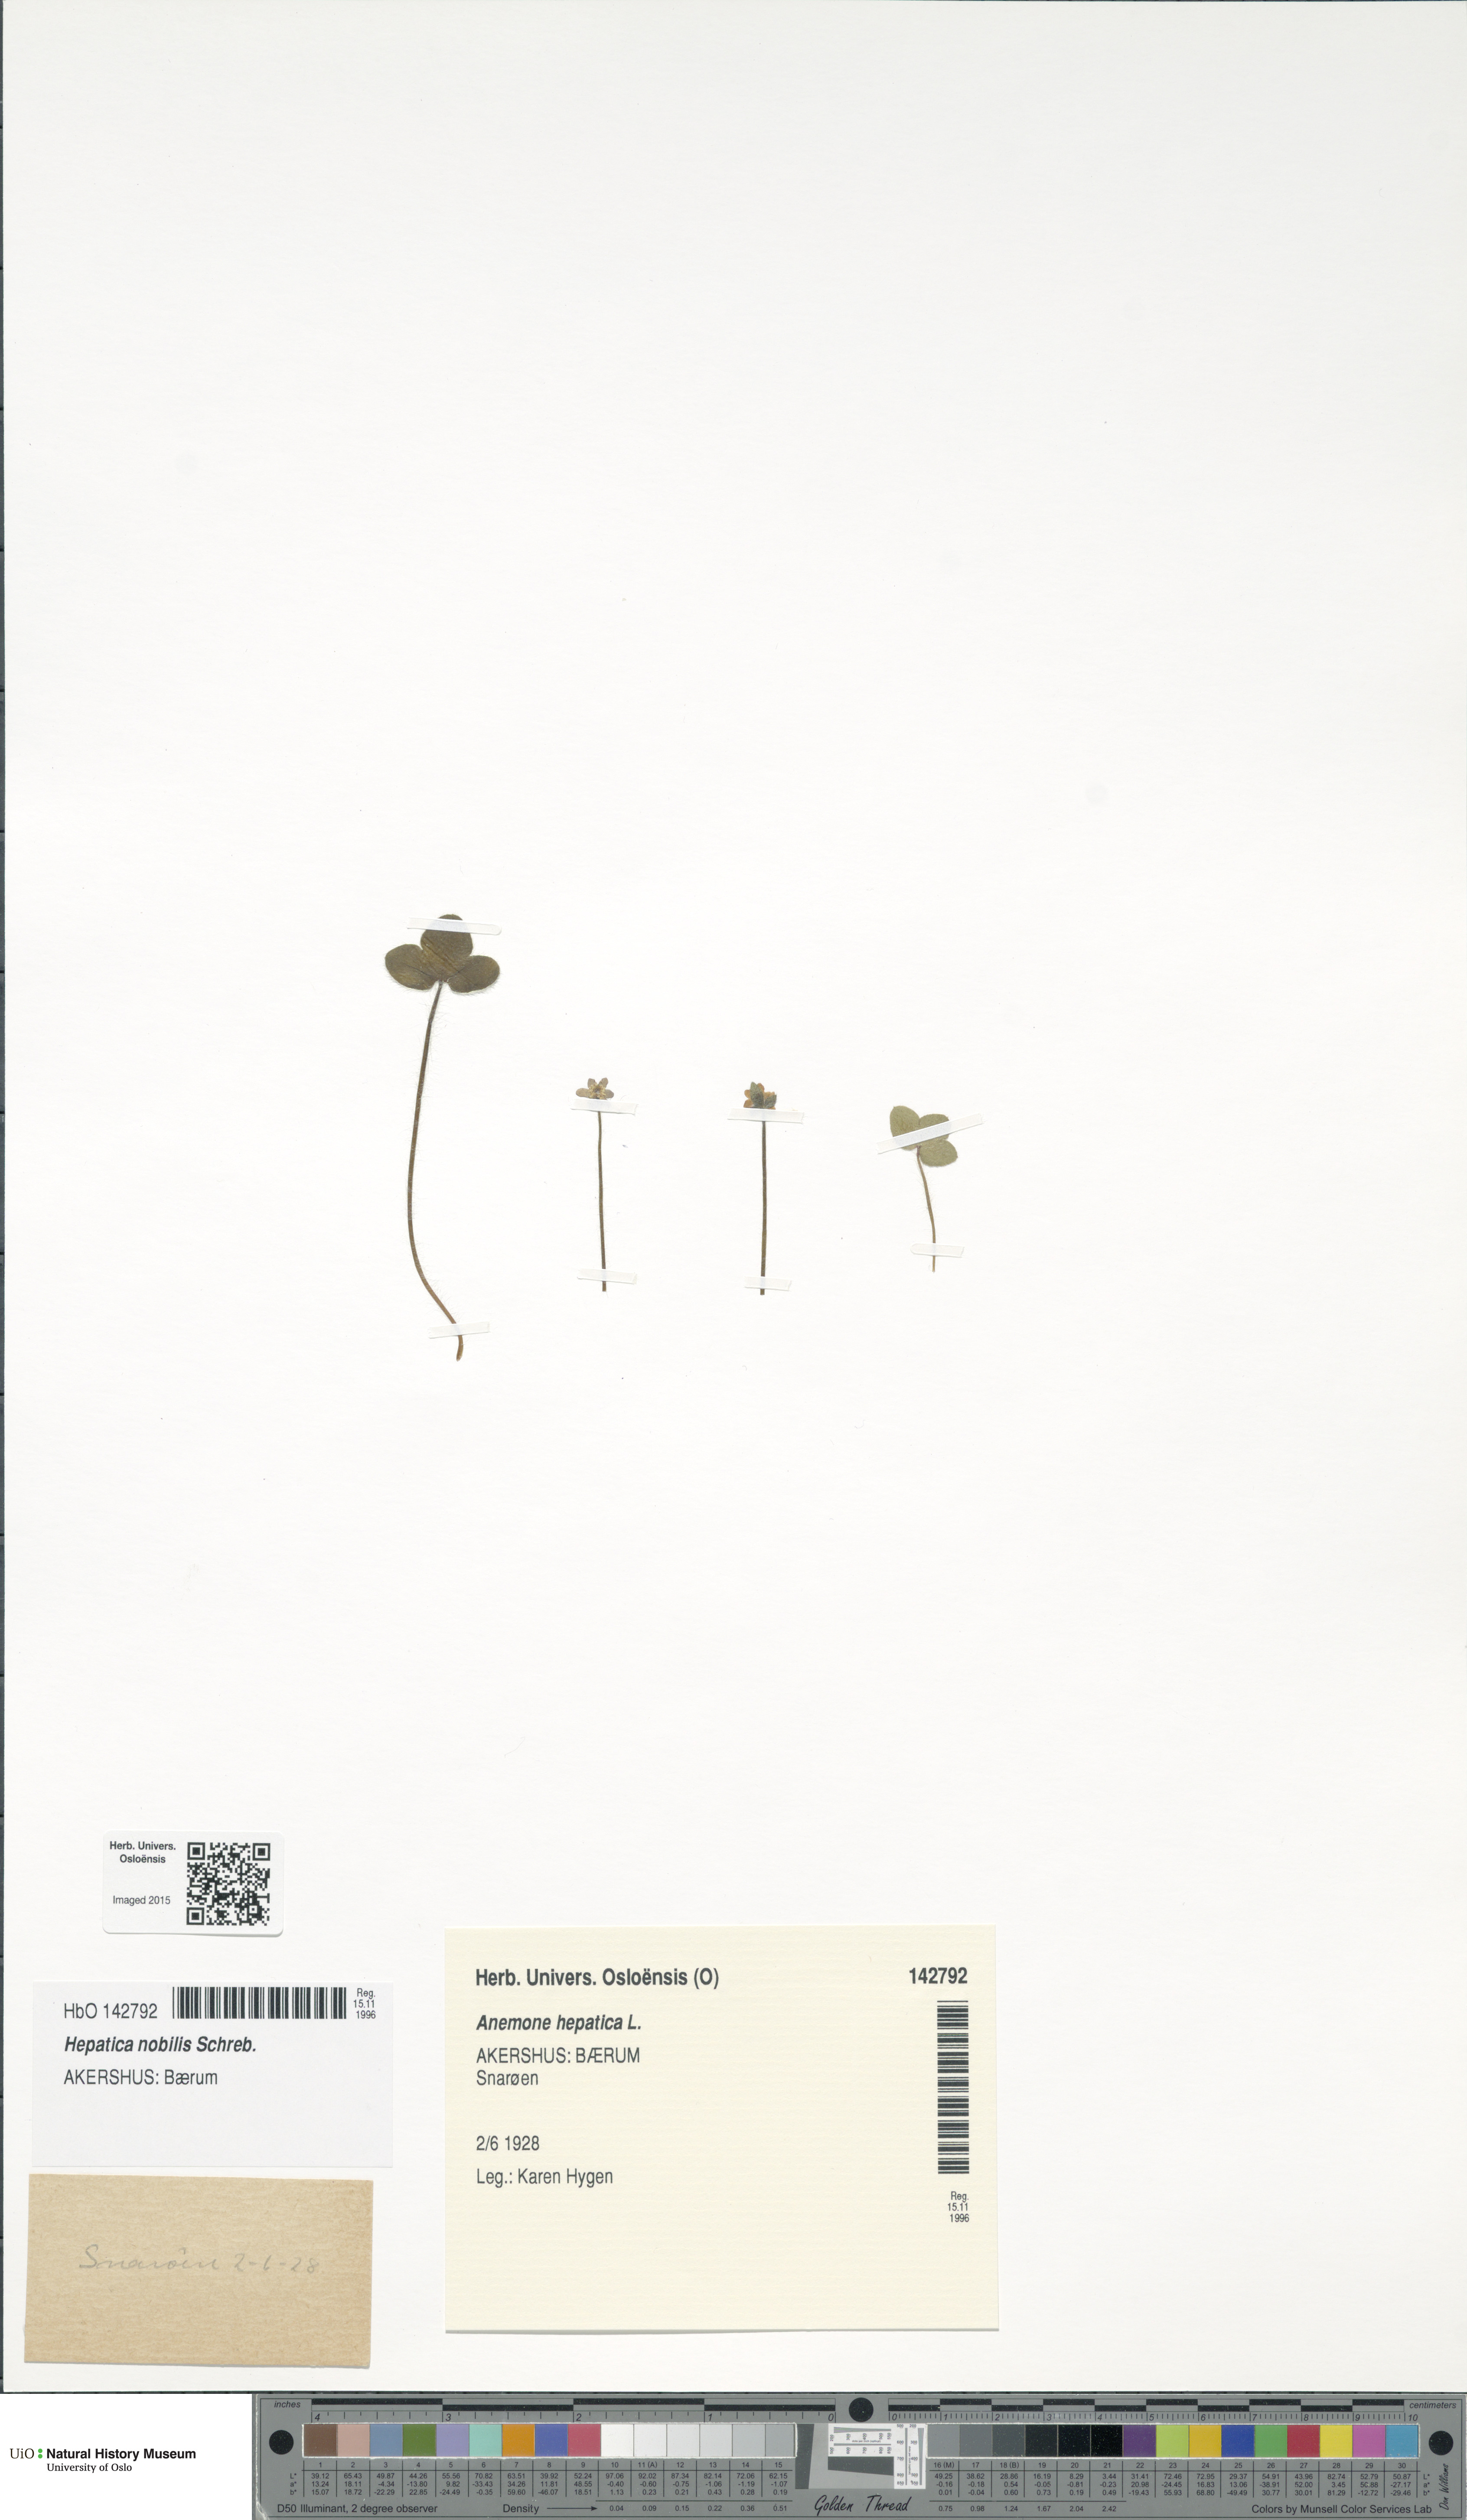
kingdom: Plantae
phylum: Tracheophyta
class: Magnoliopsida
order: Ranunculales
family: Ranunculaceae
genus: Hepatica
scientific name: Hepatica nobilis
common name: Liverleaf
